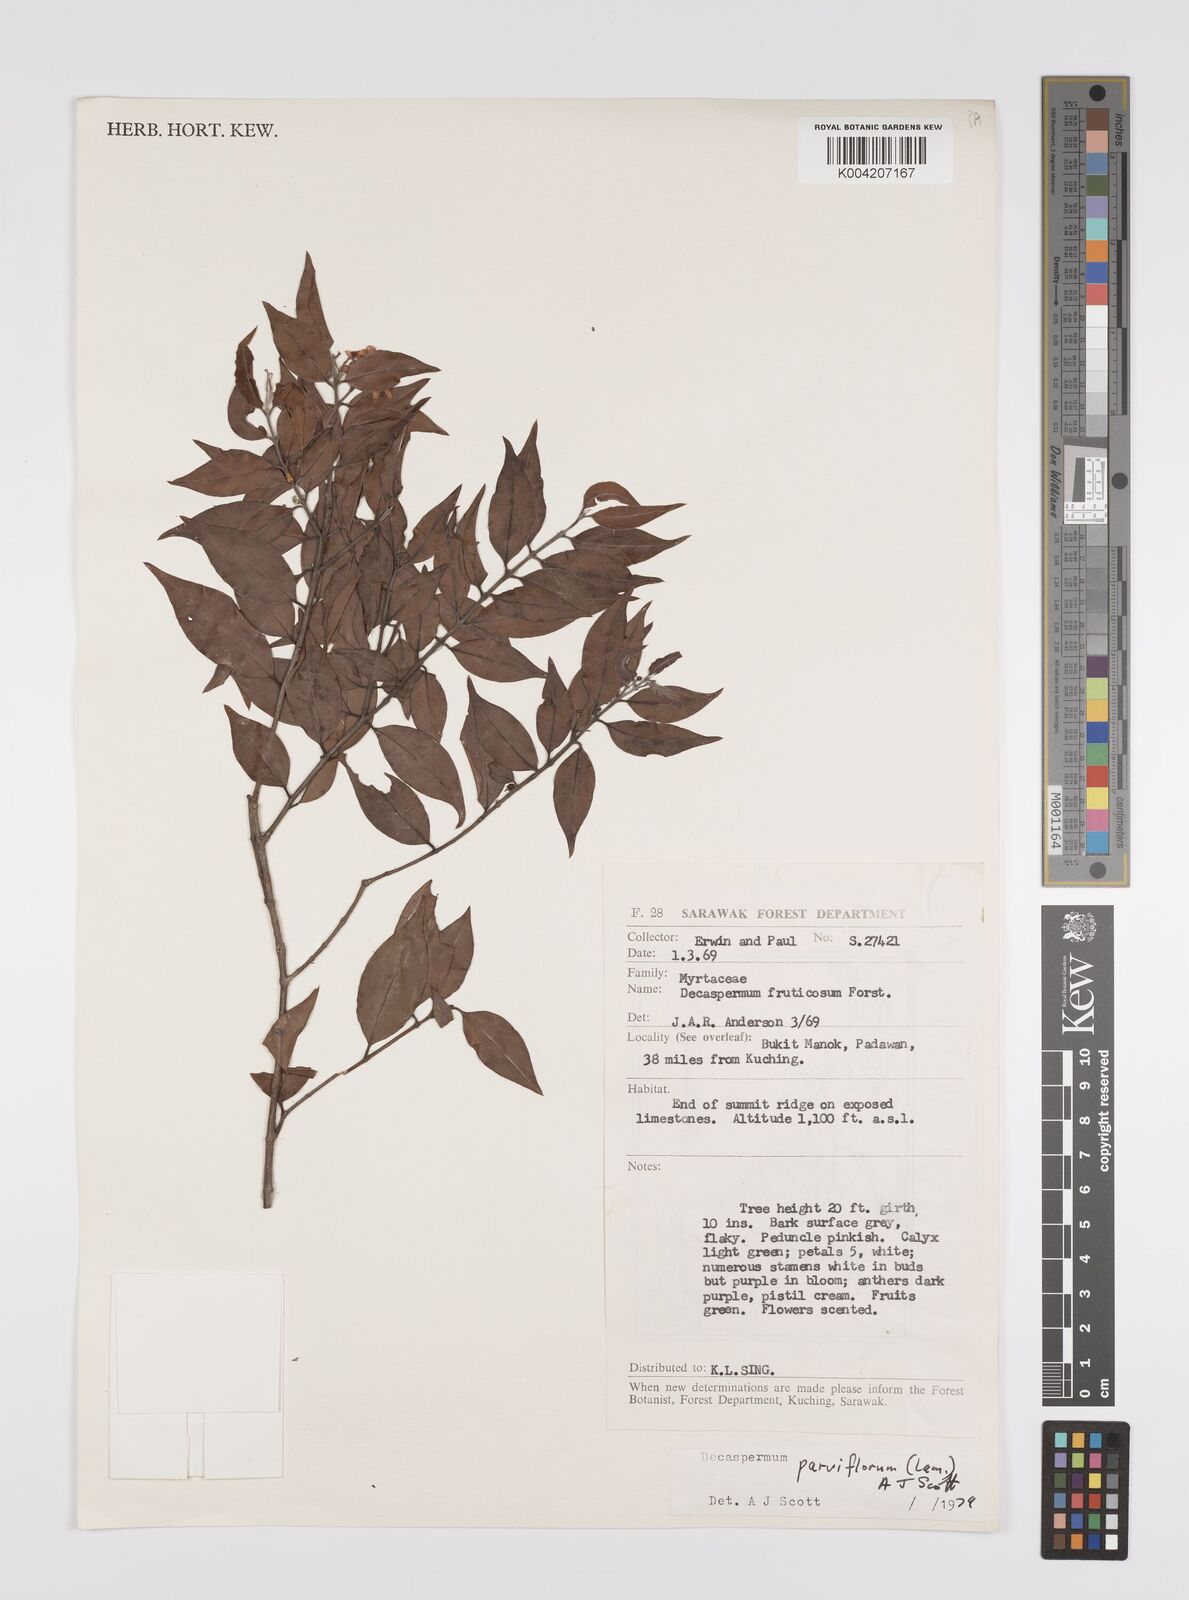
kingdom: Plantae
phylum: Tracheophyta
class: Magnoliopsida
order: Myrtales
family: Myrtaceae
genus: Decaspermum
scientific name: Decaspermum fruticosum
